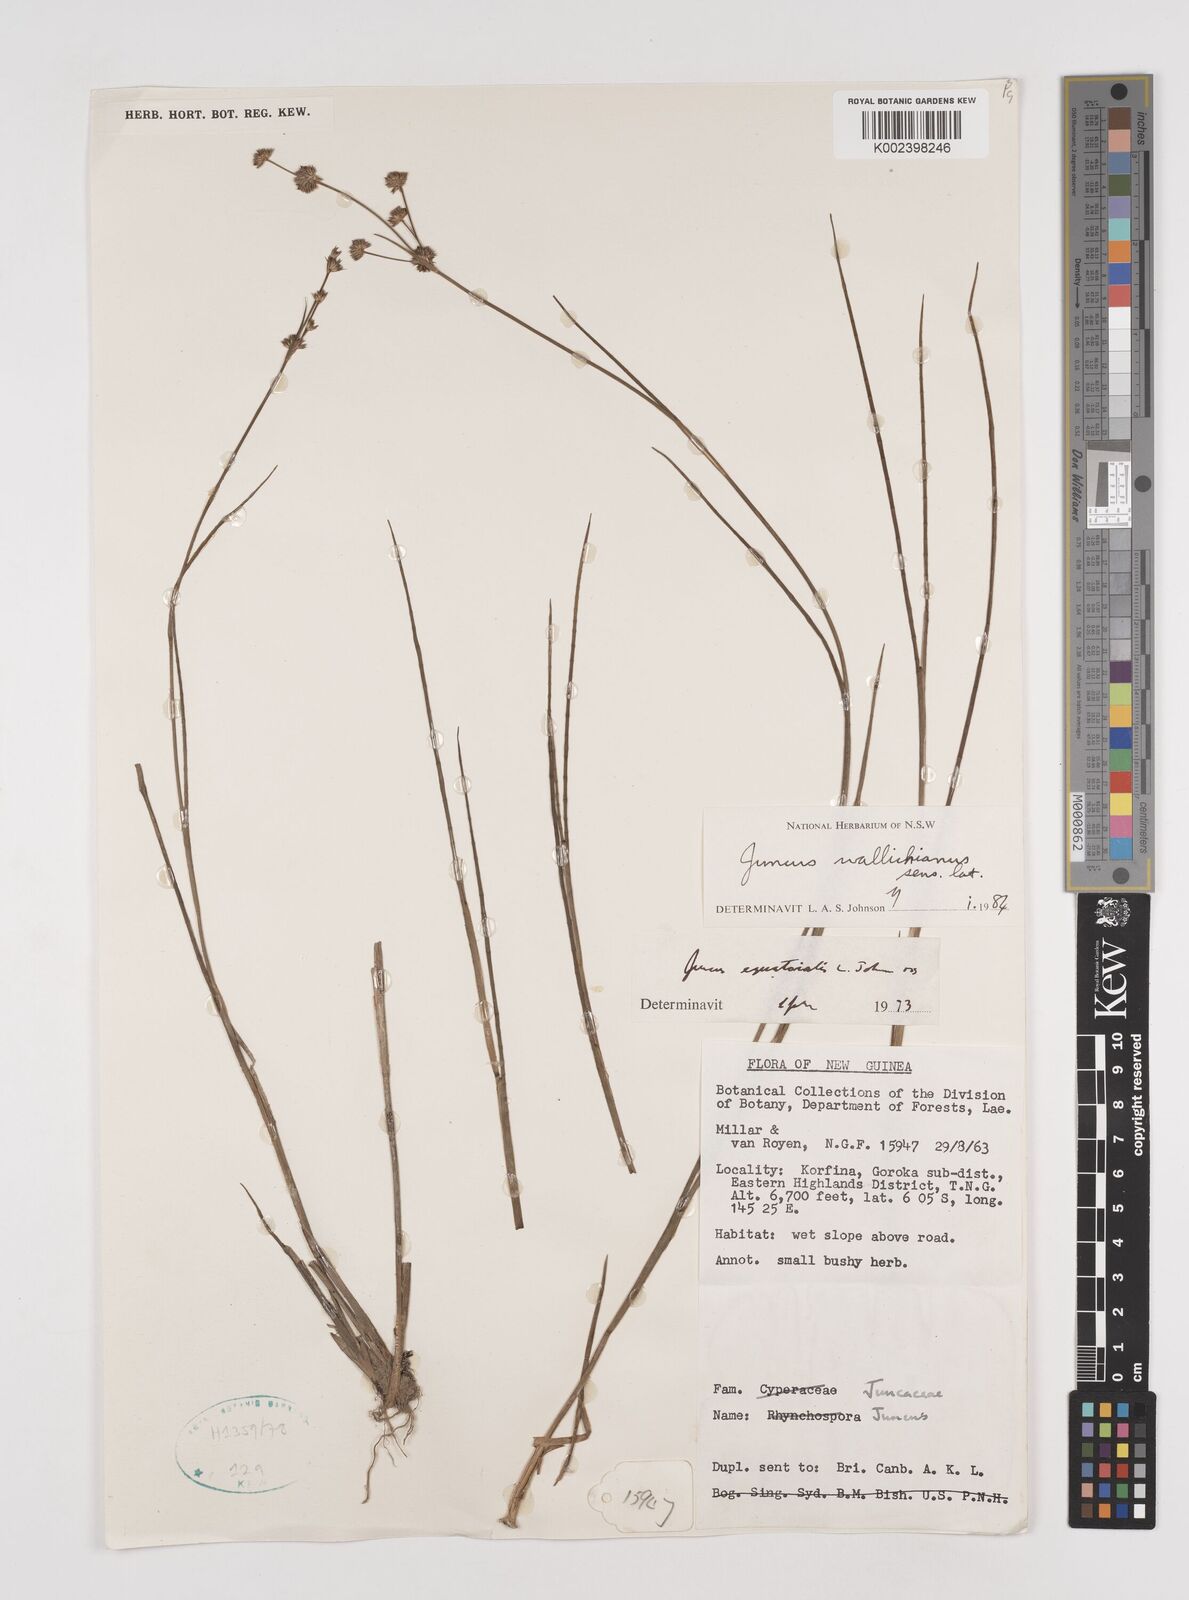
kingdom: Plantae
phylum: Tracheophyta
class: Liliopsida
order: Poales
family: Juncaceae
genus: Juncus
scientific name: Juncus wallichianus
